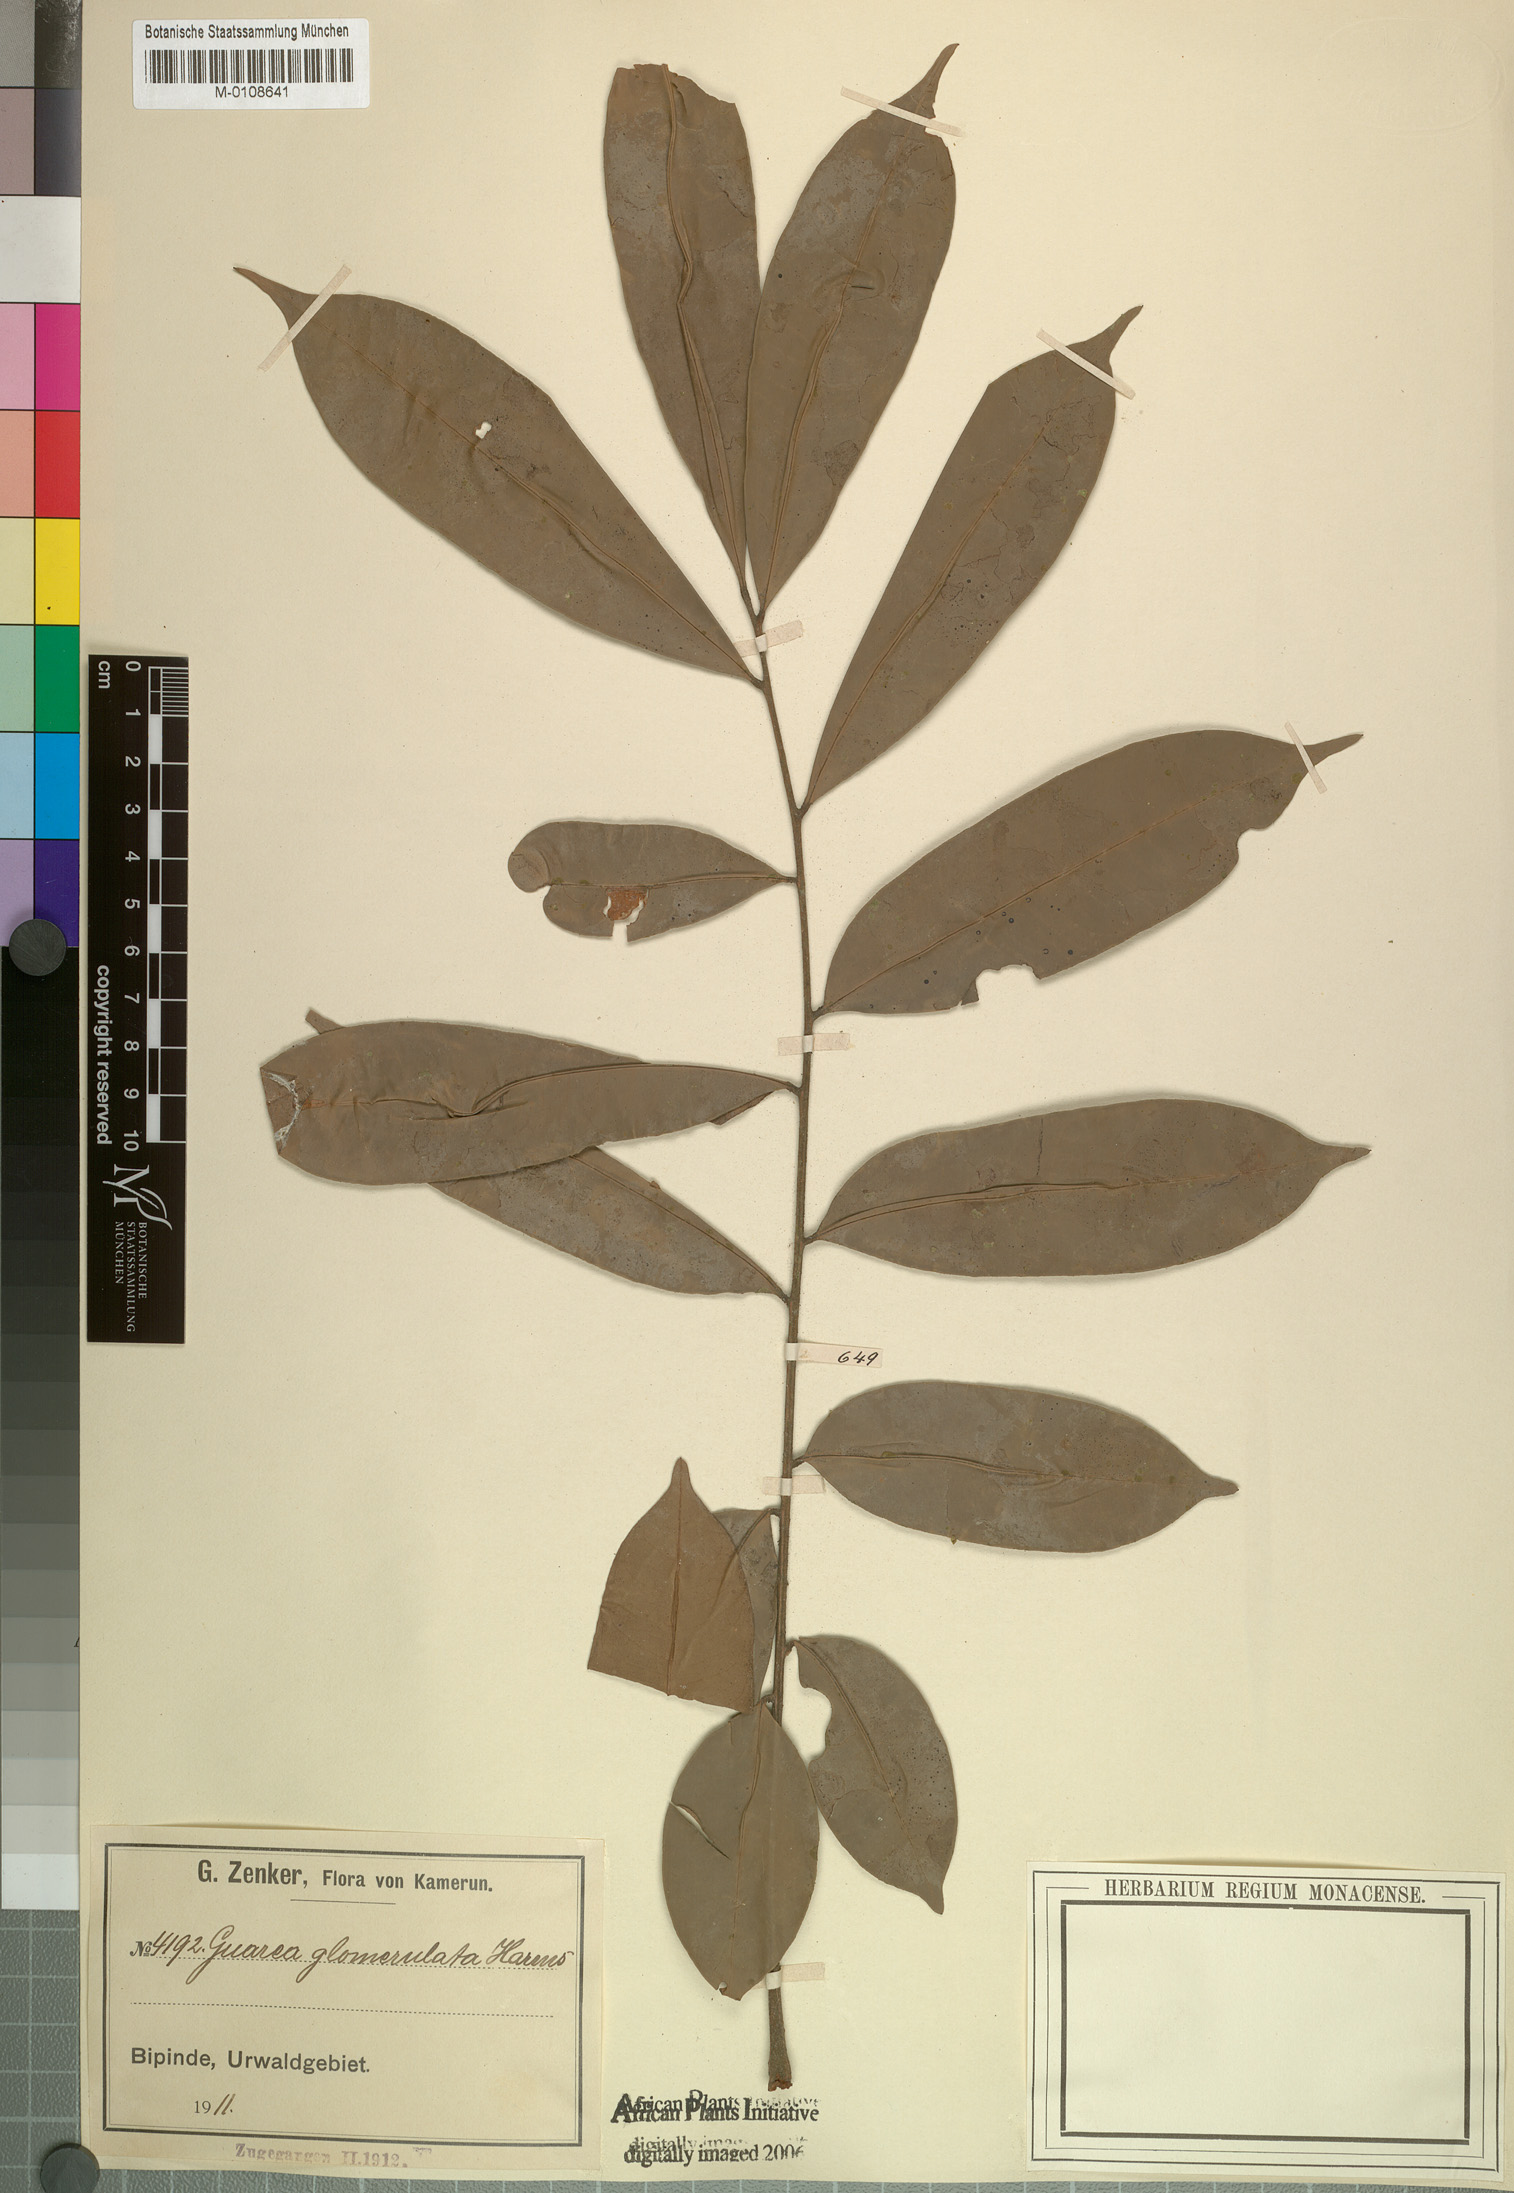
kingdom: Plantae
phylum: Tracheophyta
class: Magnoliopsida
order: Sapindales
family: Meliaceae
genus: Neoguarea
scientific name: Neoguarea glomerulata
